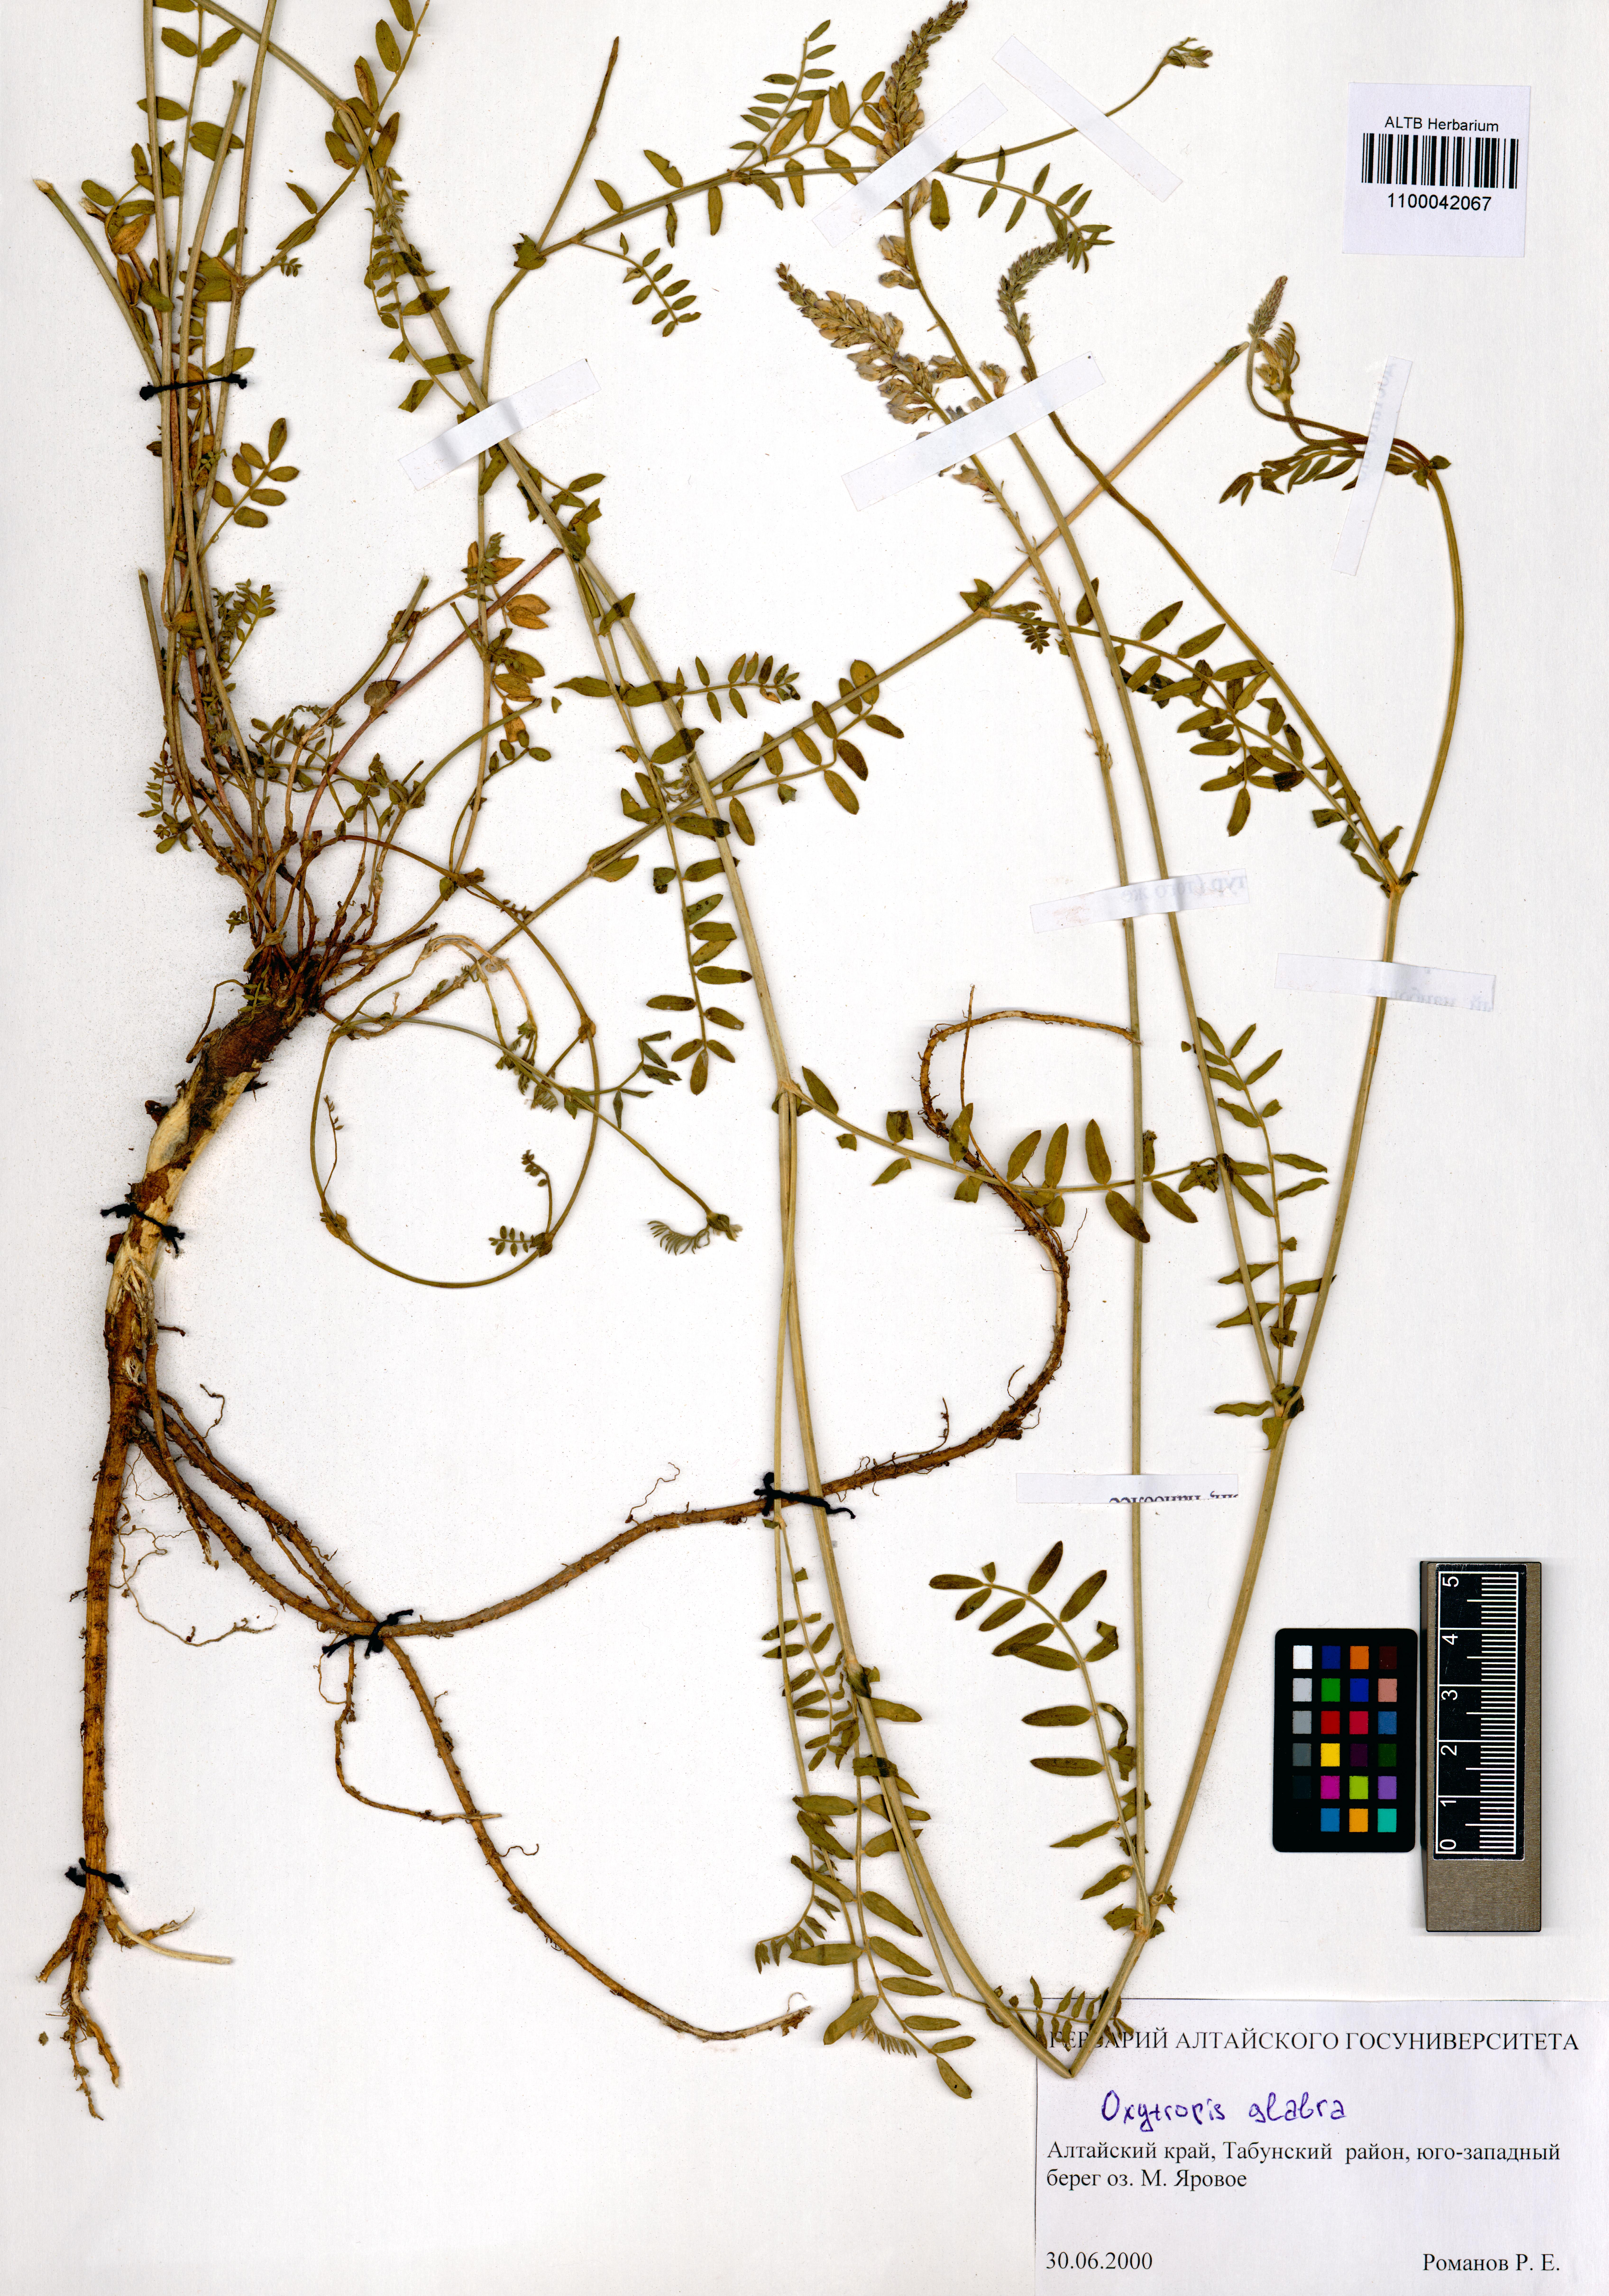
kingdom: Plantae
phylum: Tracheophyta
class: Magnoliopsida
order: Fabales
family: Fabaceae
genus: Oxytropis
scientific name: Oxytropis glabra
